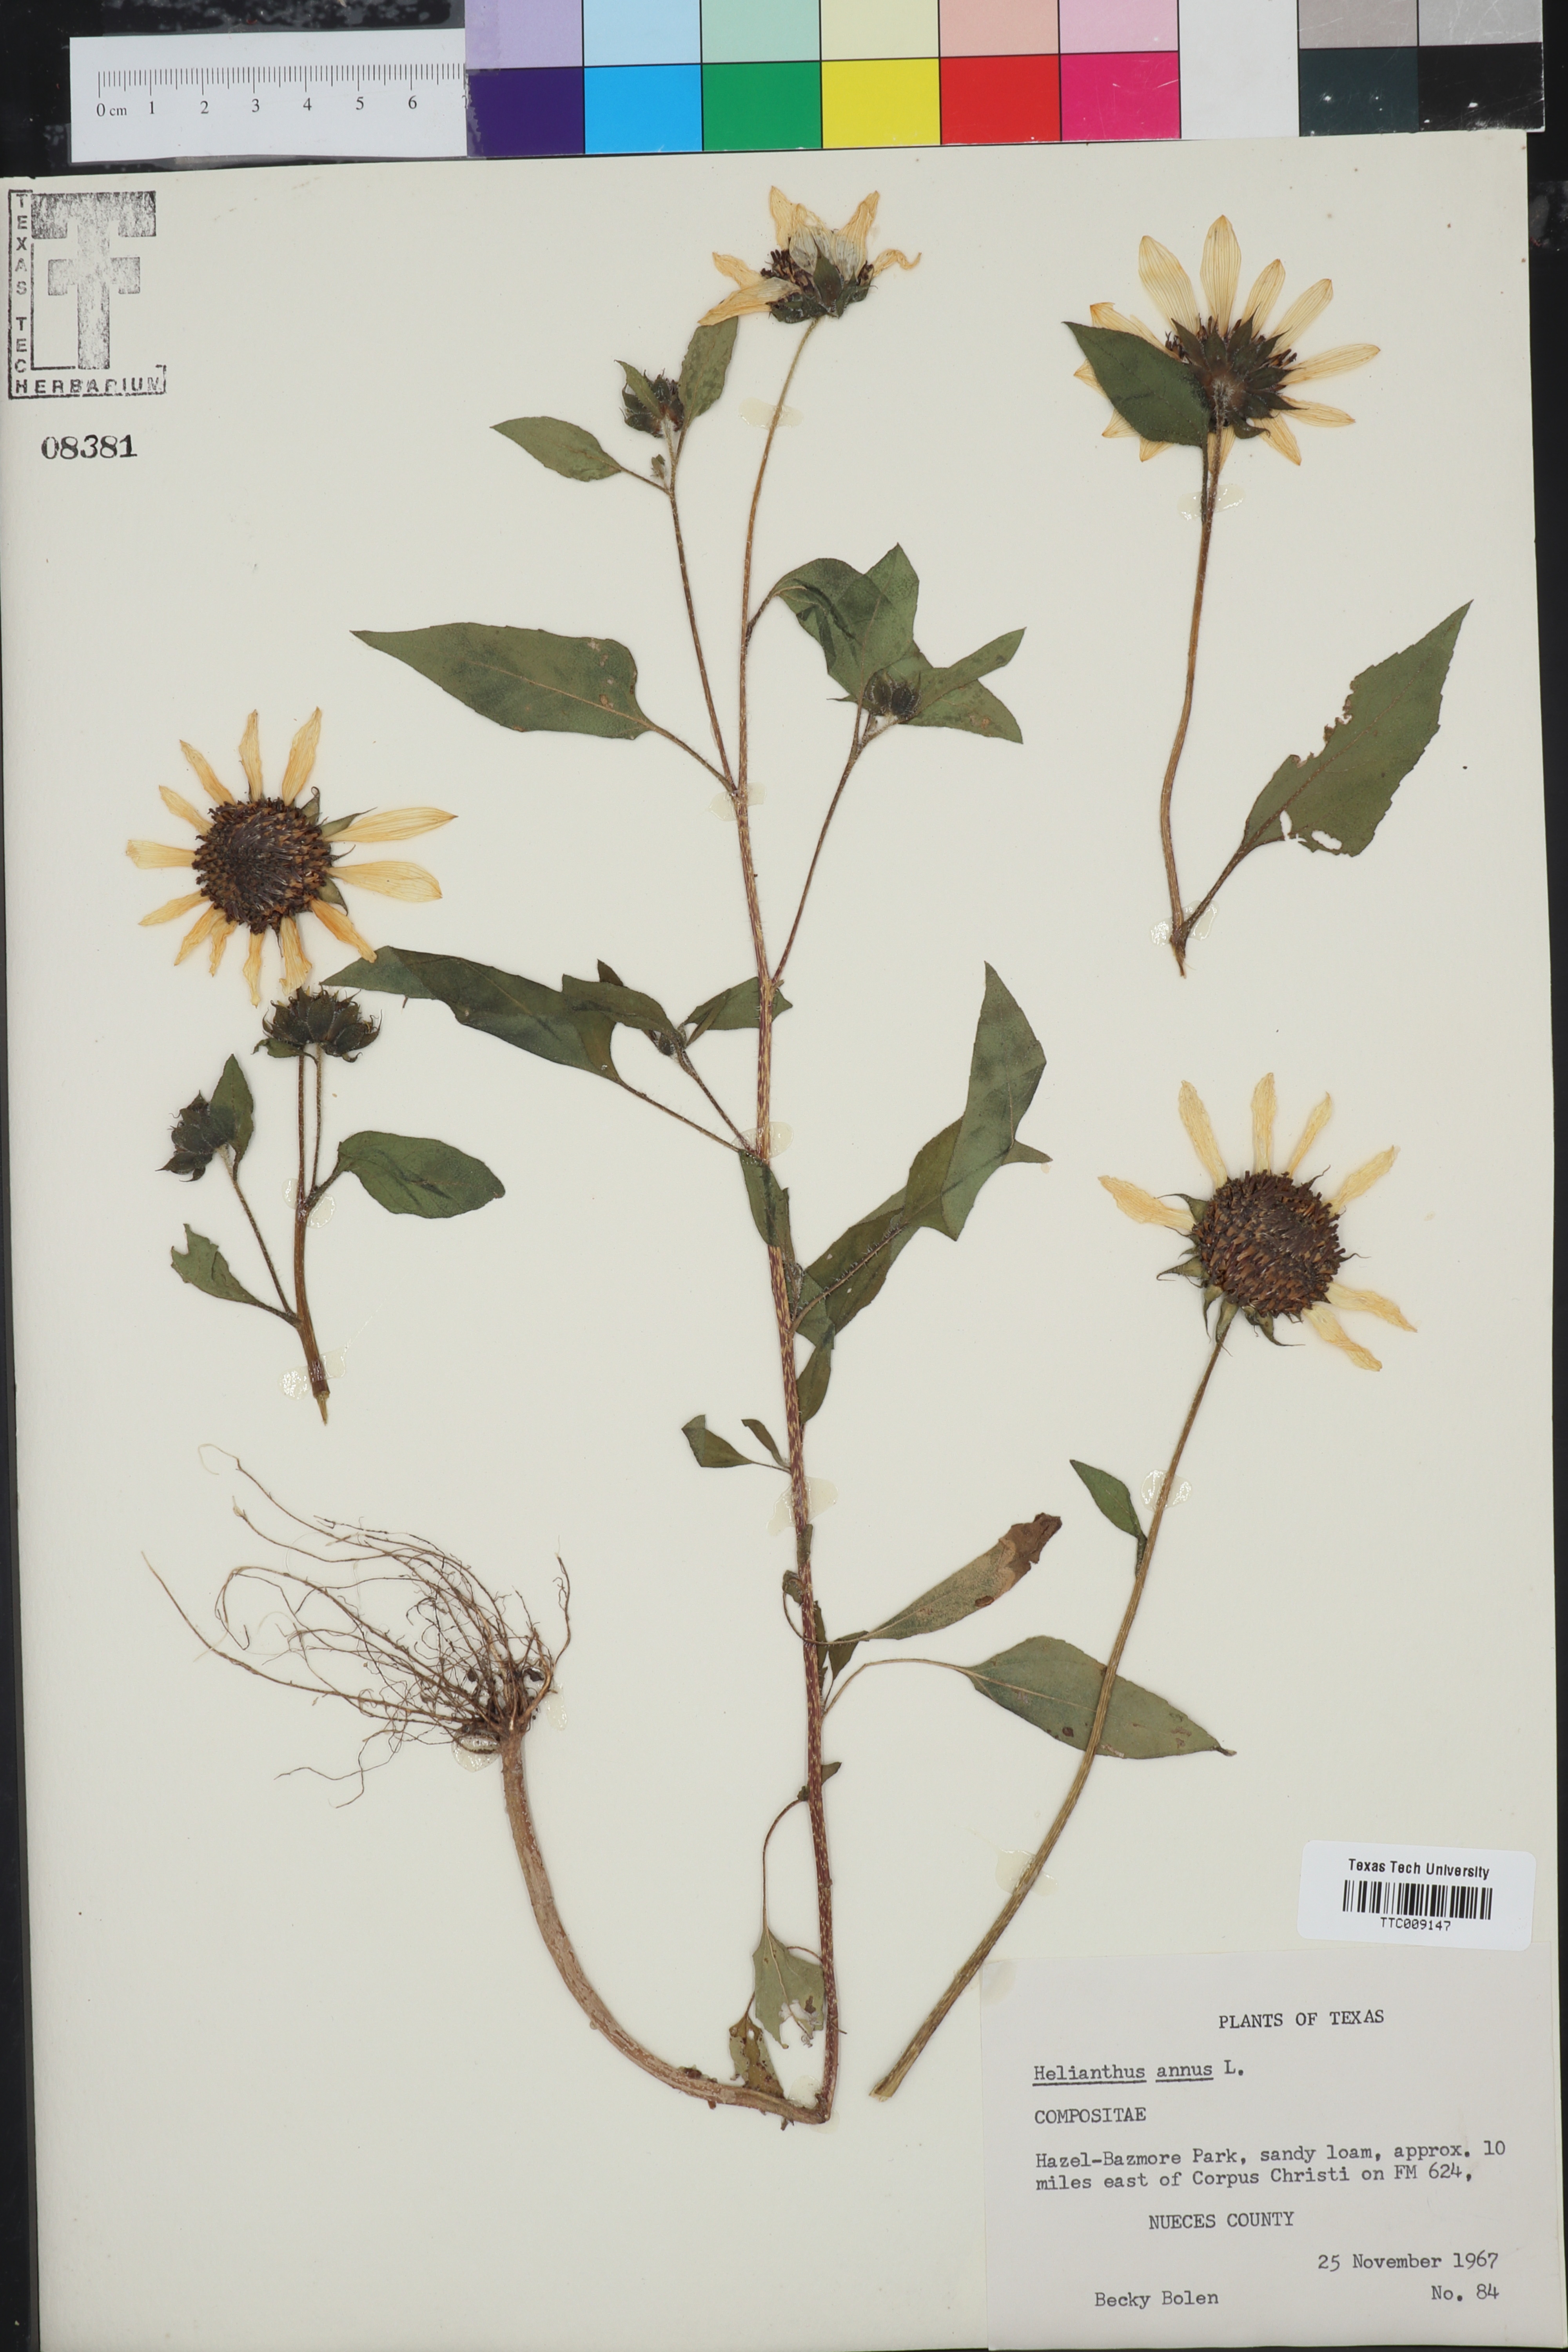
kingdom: Plantae
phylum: Tracheophyta
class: Magnoliopsida
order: Asterales
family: Asteraceae
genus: Helianthus
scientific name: Helianthus annuus
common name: Sunflower
